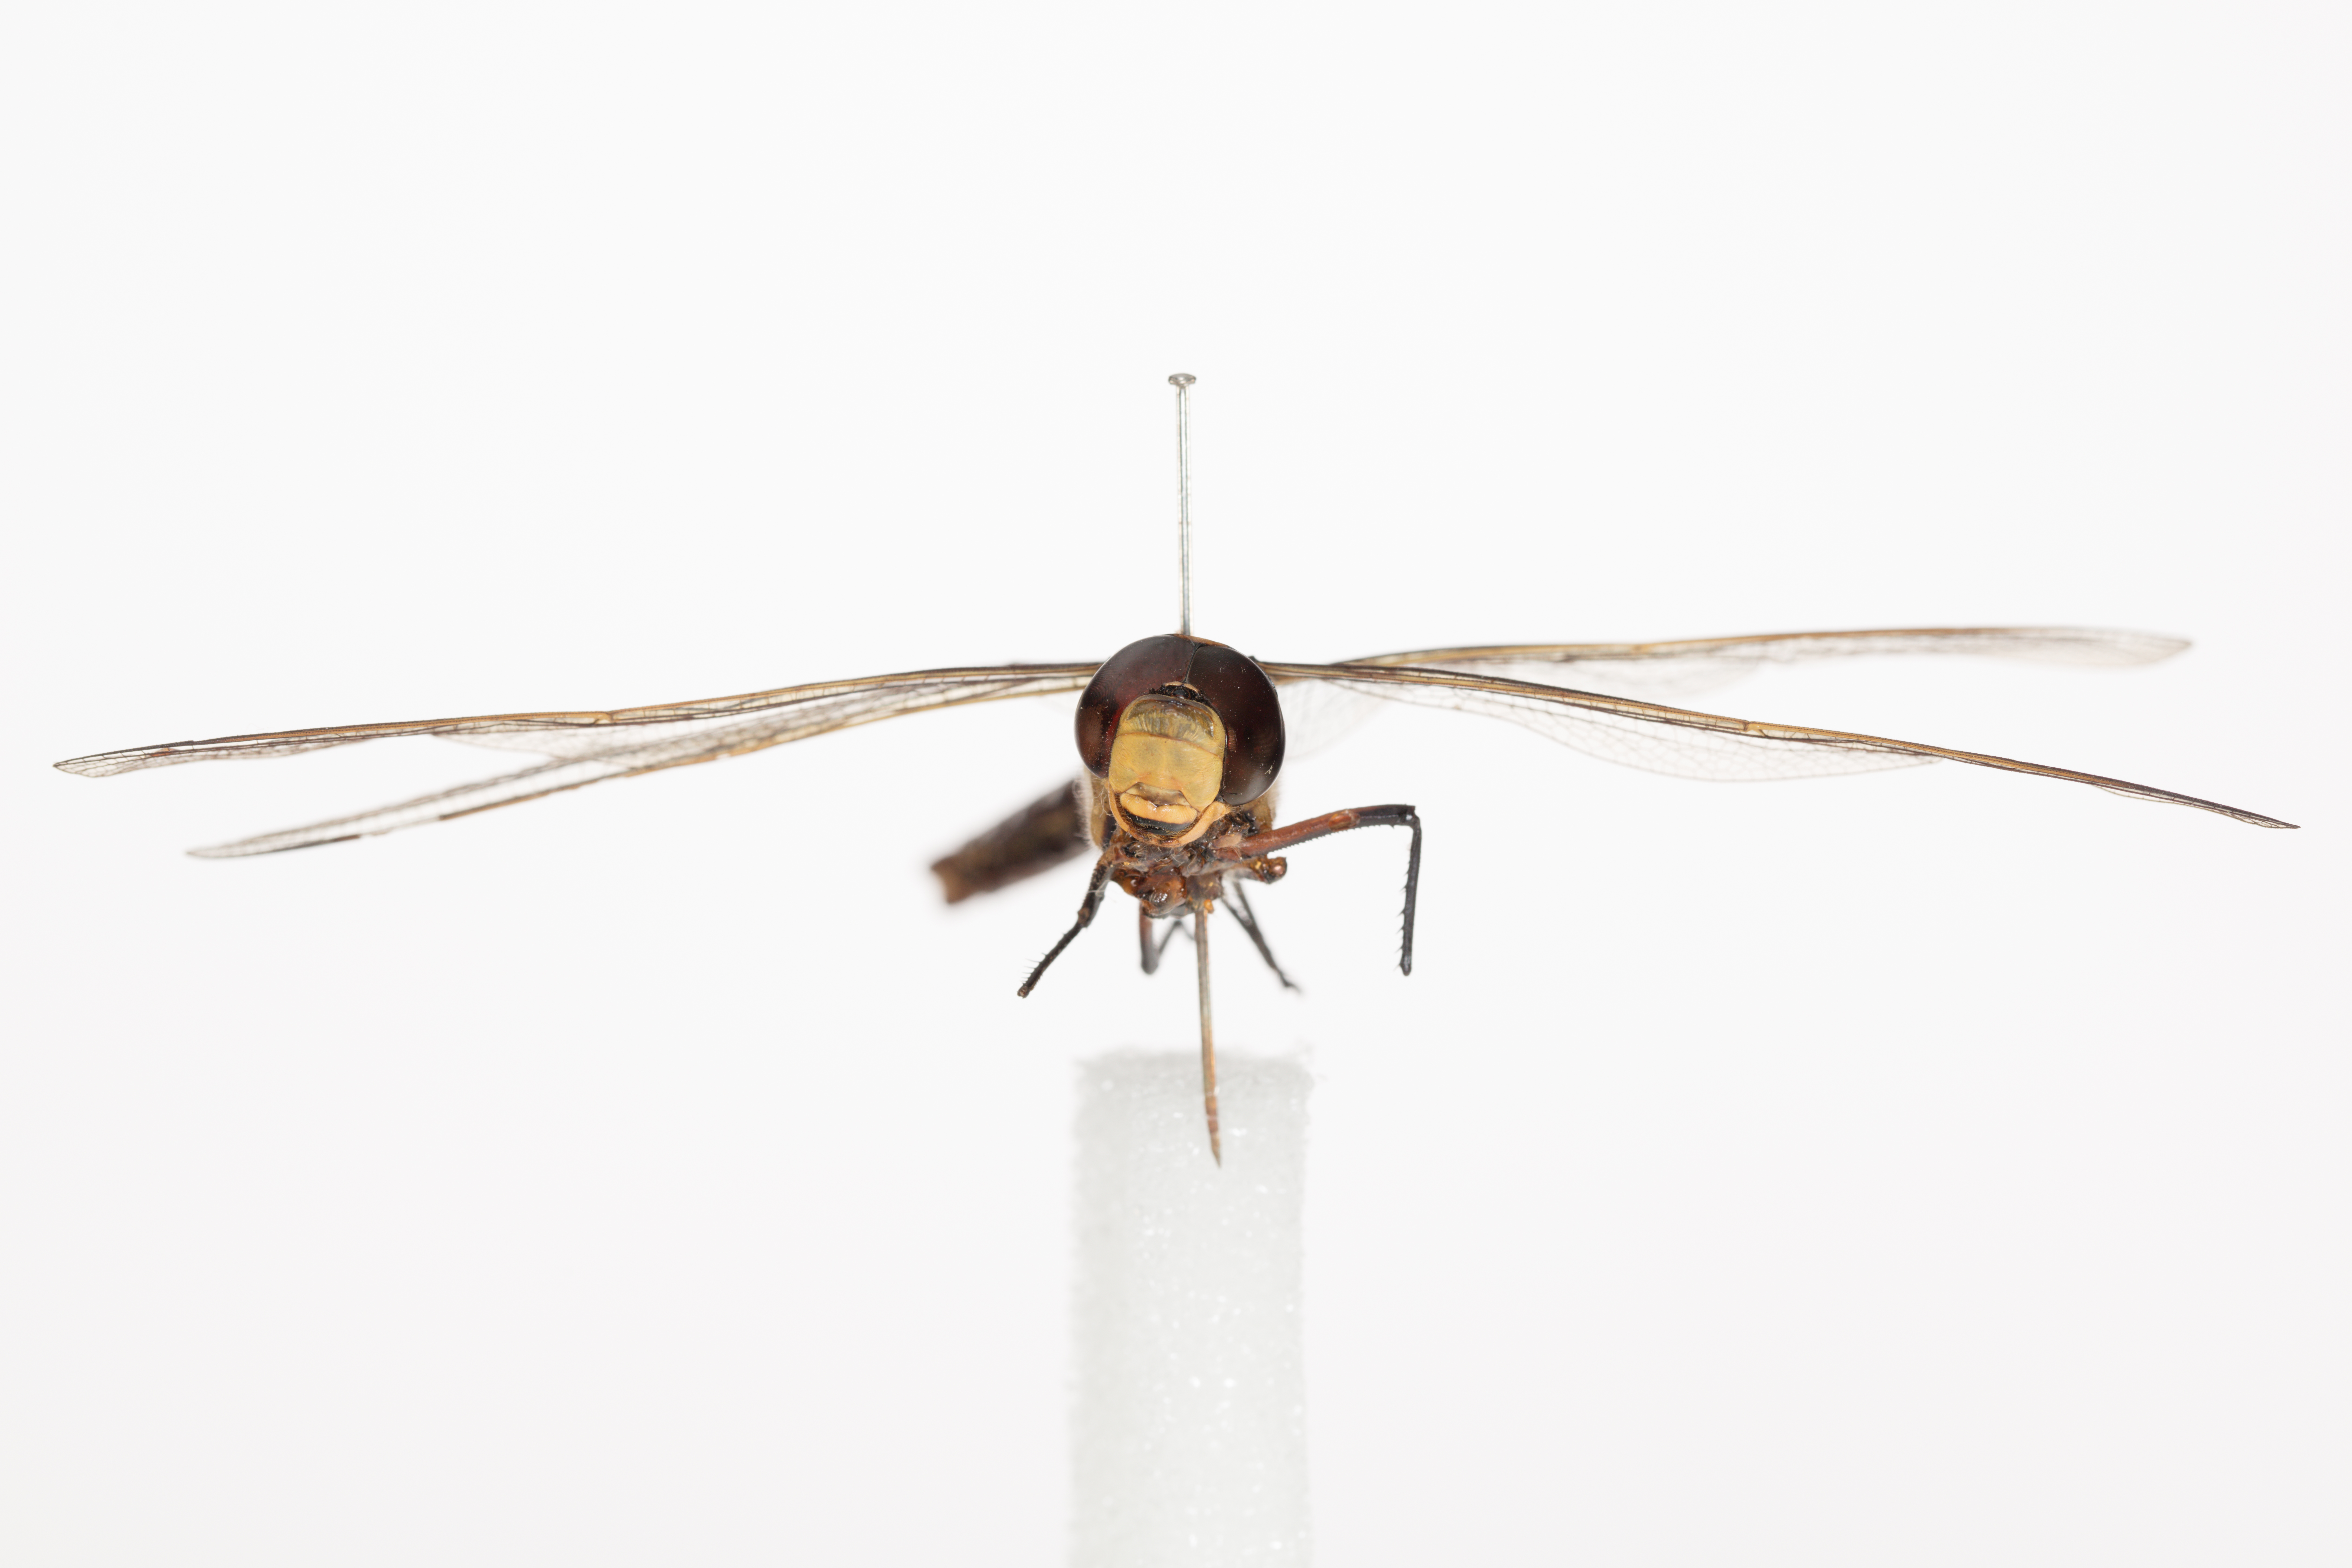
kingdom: Animalia
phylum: Arthropoda
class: Insecta
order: Odonata
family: Aeshnidae
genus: Anax
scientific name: Anax imperator
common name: Emperor dragonfly
